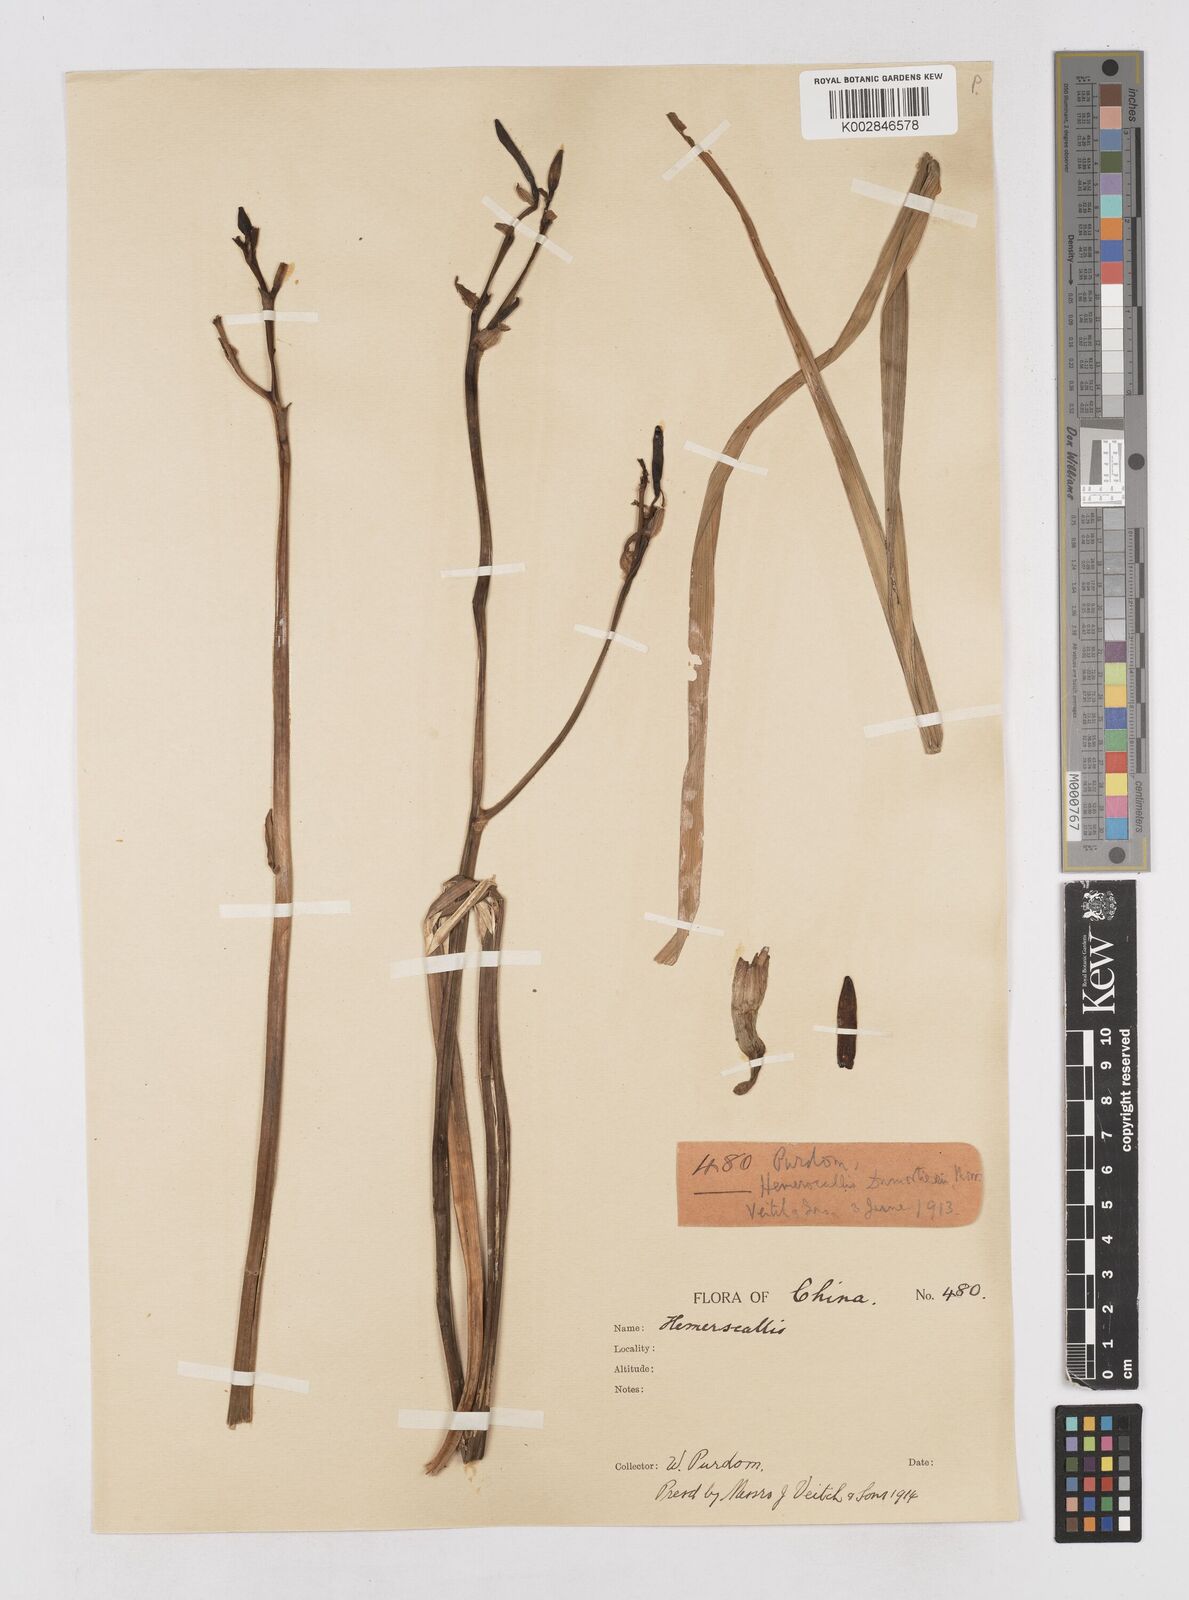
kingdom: Plantae
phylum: Tracheophyta
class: Liliopsida
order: Asparagales
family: Asphodelaceae
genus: Hemerocallis
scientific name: Hemerocallis
